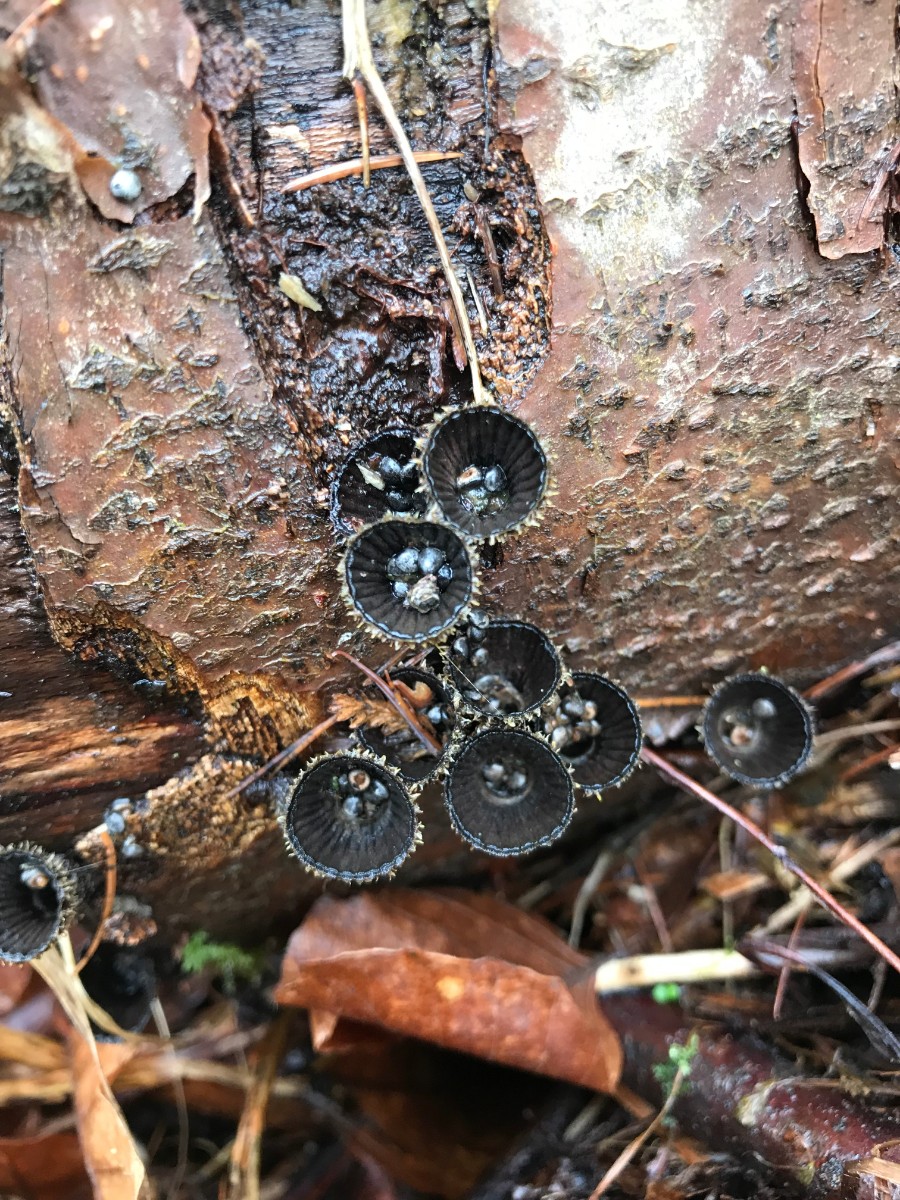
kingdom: Fungi
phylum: Basidiomycota
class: Agaricomycetes
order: Agaricales
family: Agaricaceae
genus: Cyathus
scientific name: Cyathus striatus
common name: stribet redesvamp
